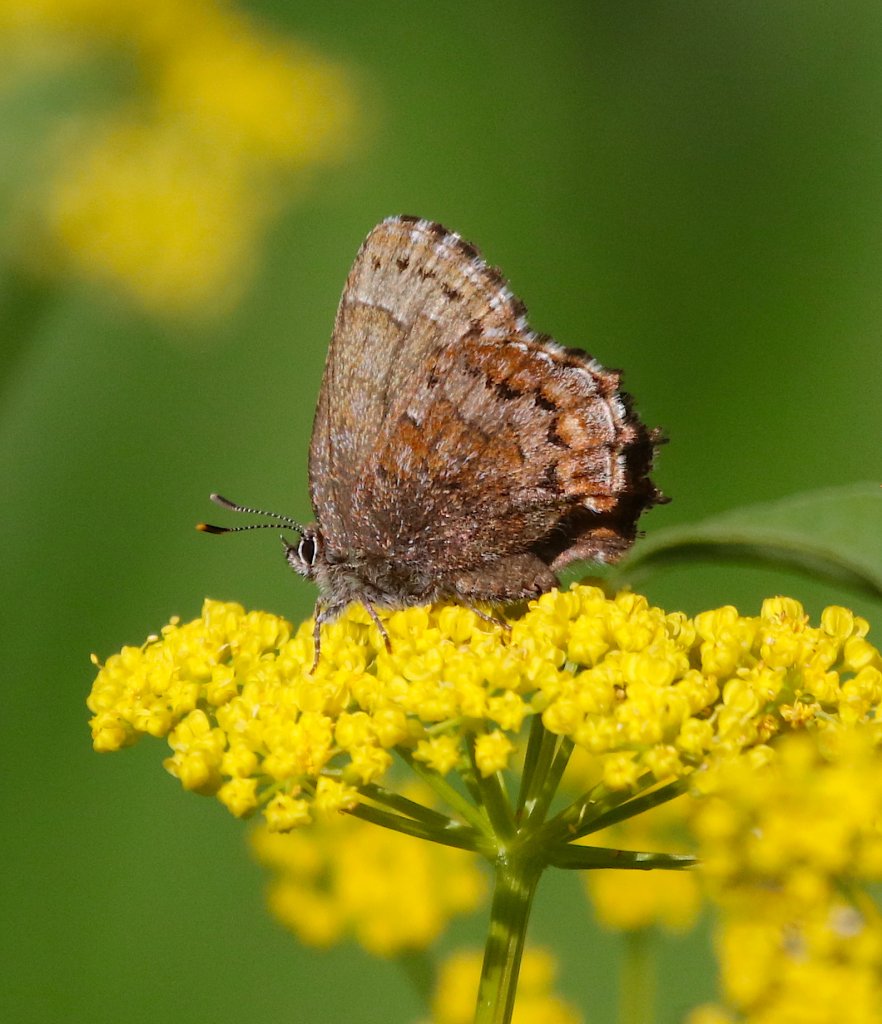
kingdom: Animalia
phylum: Arthropoda
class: Insecta
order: Lepidoptera
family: Lycaenidae
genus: Incisalia
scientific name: Incisalia niphon
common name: Eastern Pine Elfin
